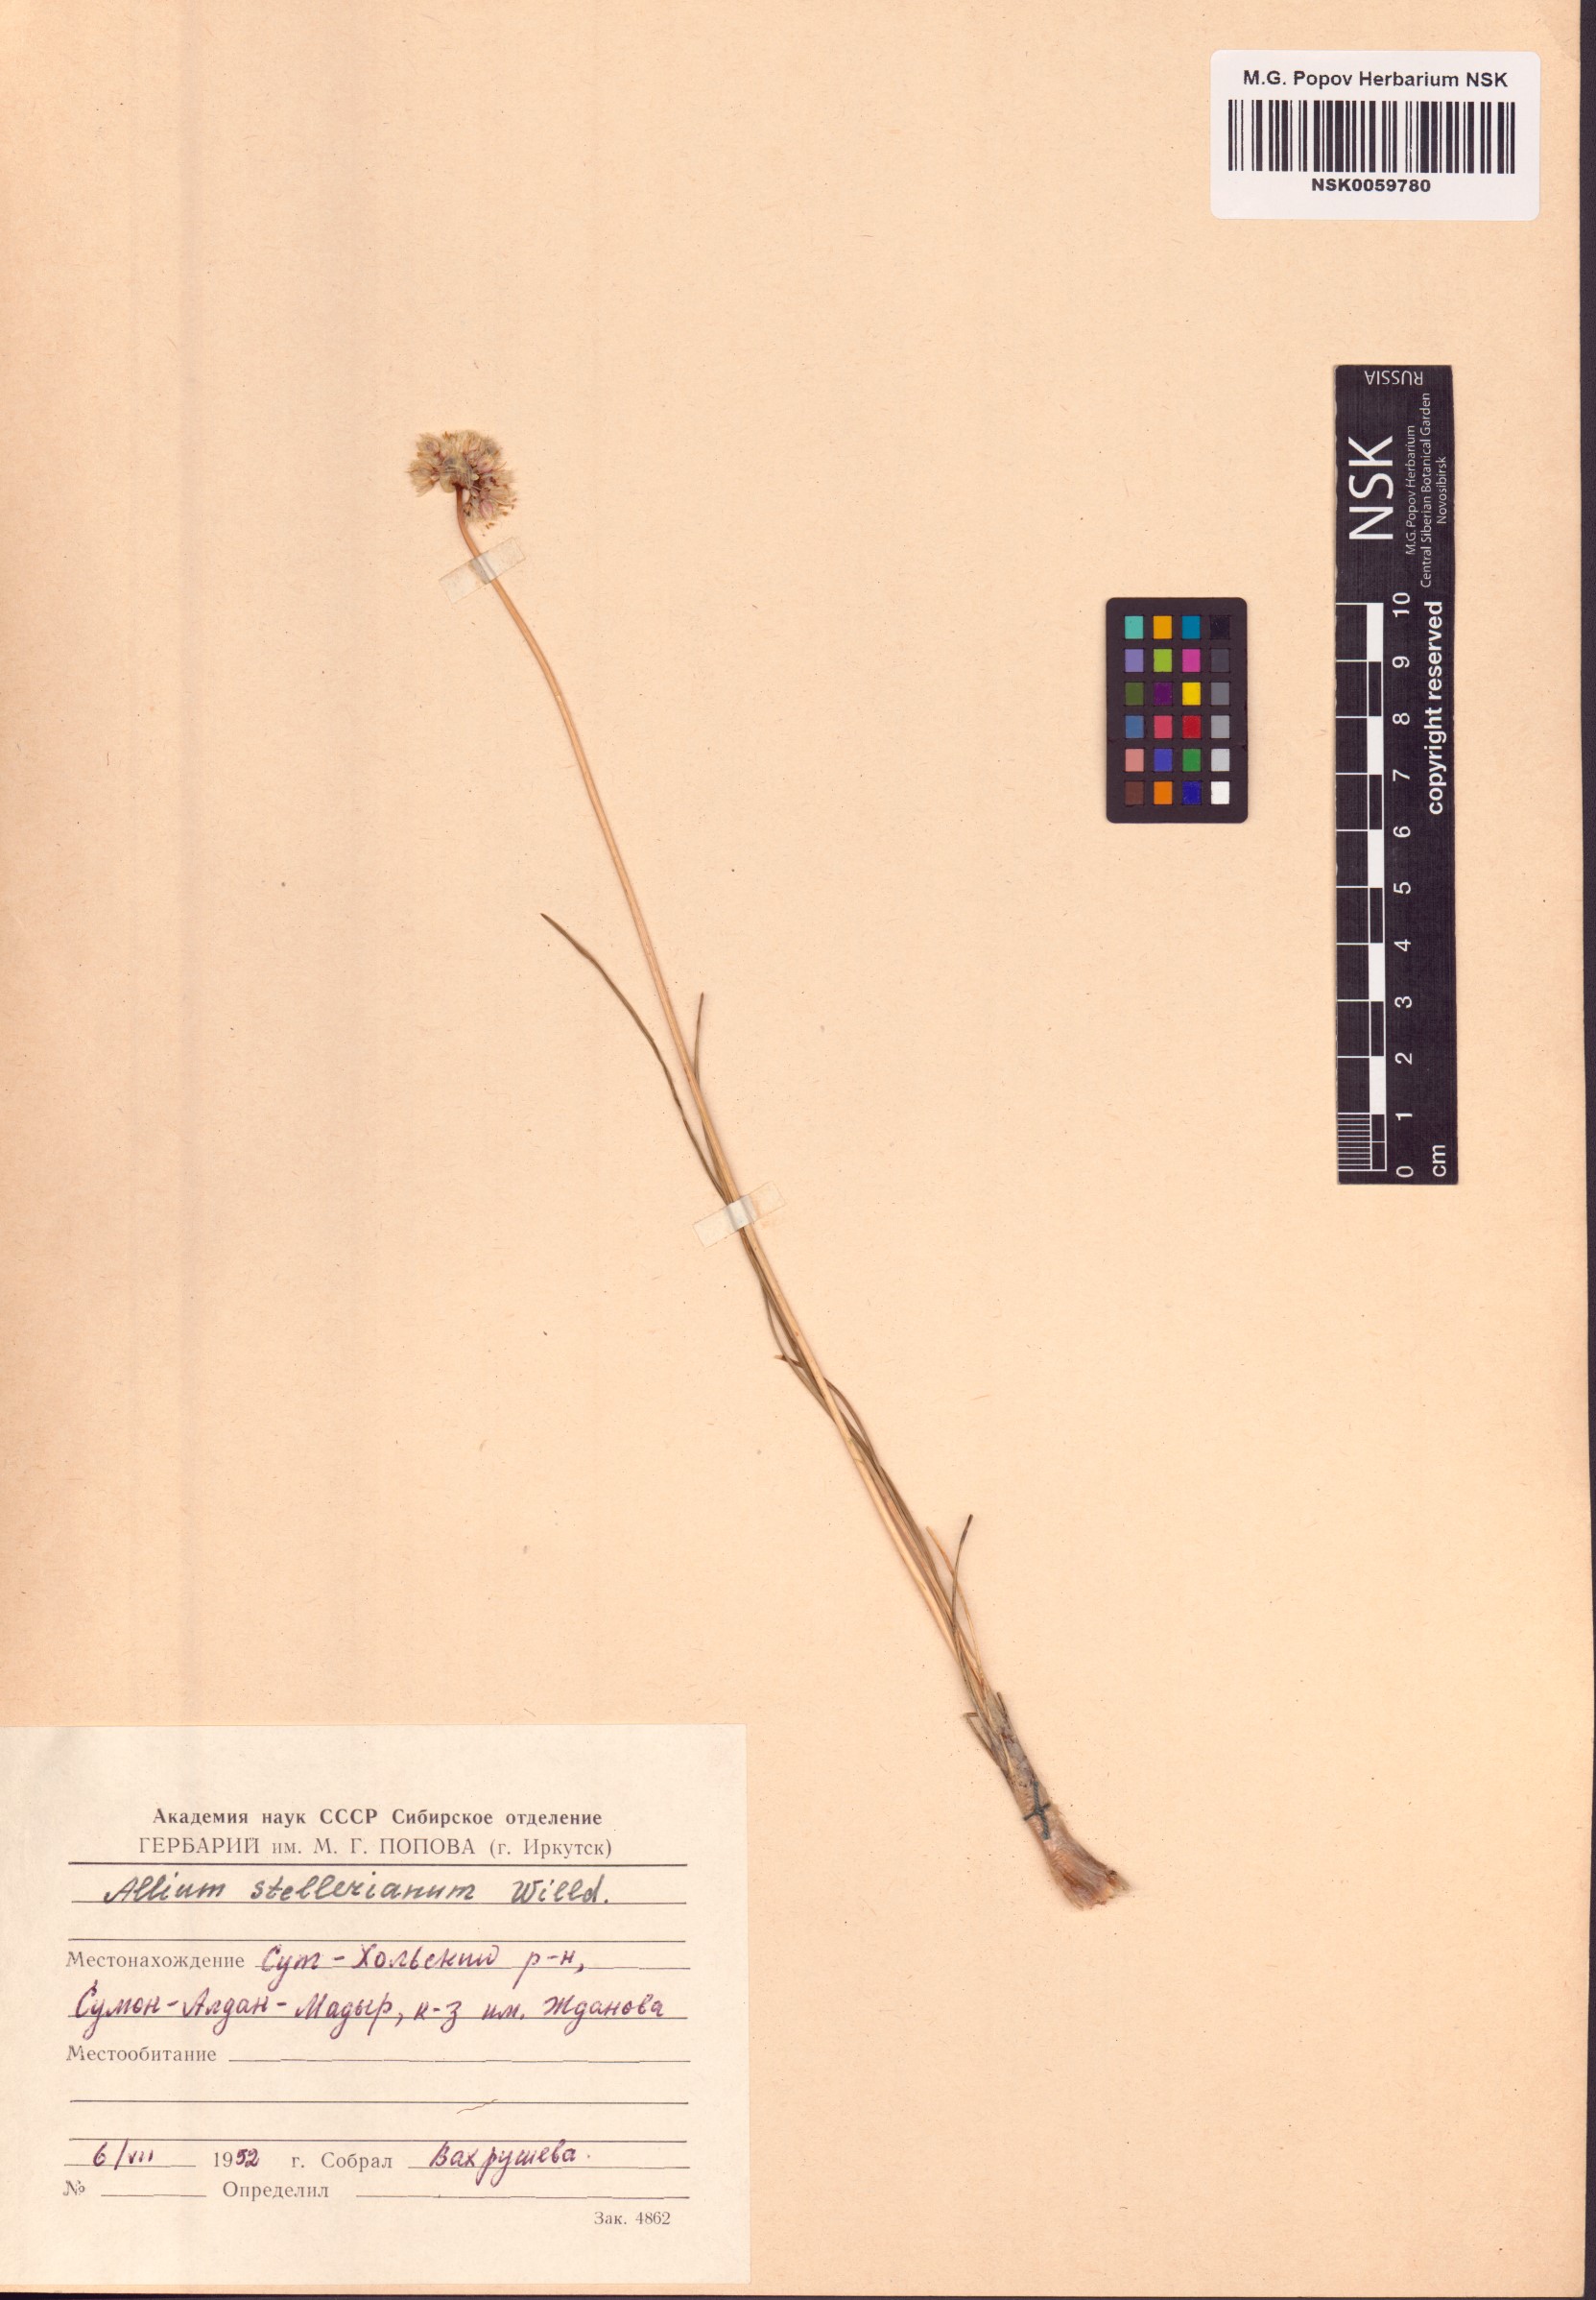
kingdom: Plantae
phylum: Tracheophyta
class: Liliopsida
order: Asparagales
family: Amaryllidaceae
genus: Allium
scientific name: Allium stellerianum
